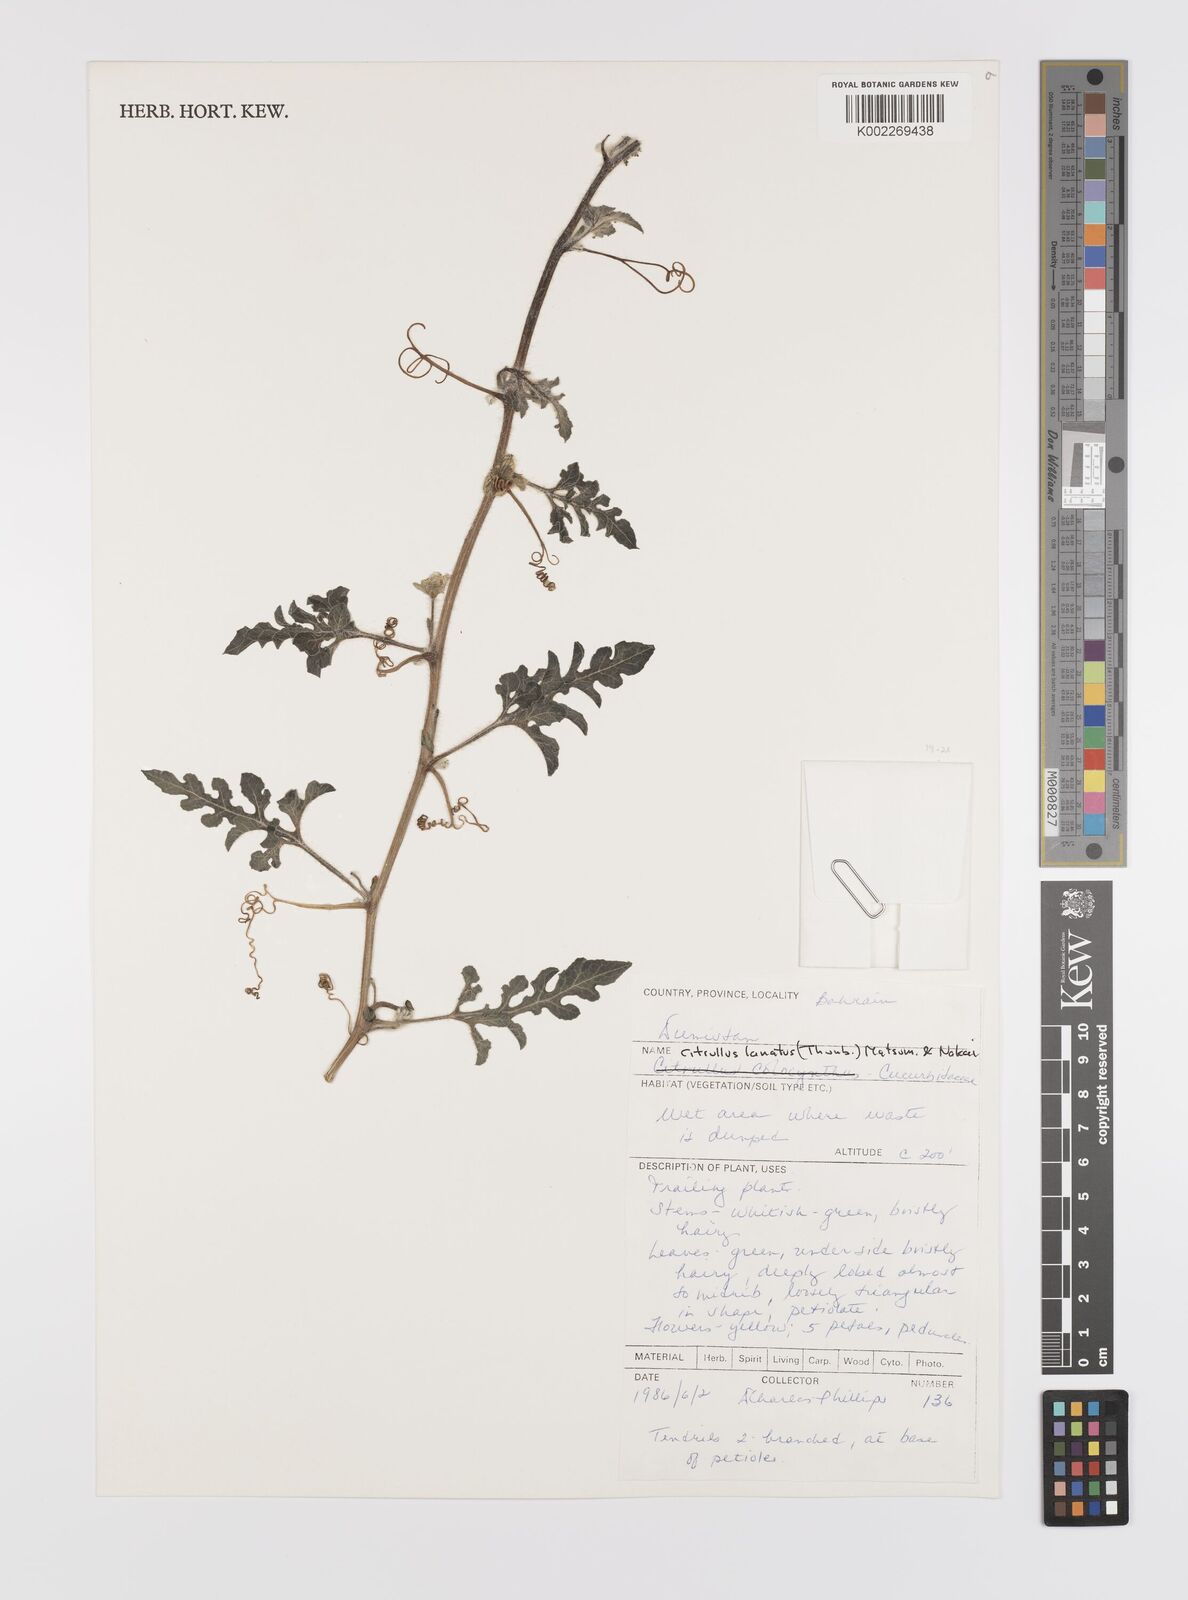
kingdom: Plantae
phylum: Tracheophyta
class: Magnoliopsida
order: Cucurbitales
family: Cucurbitaceae
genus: Citrullus
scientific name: Citrullus lanatus
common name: Watermelon
